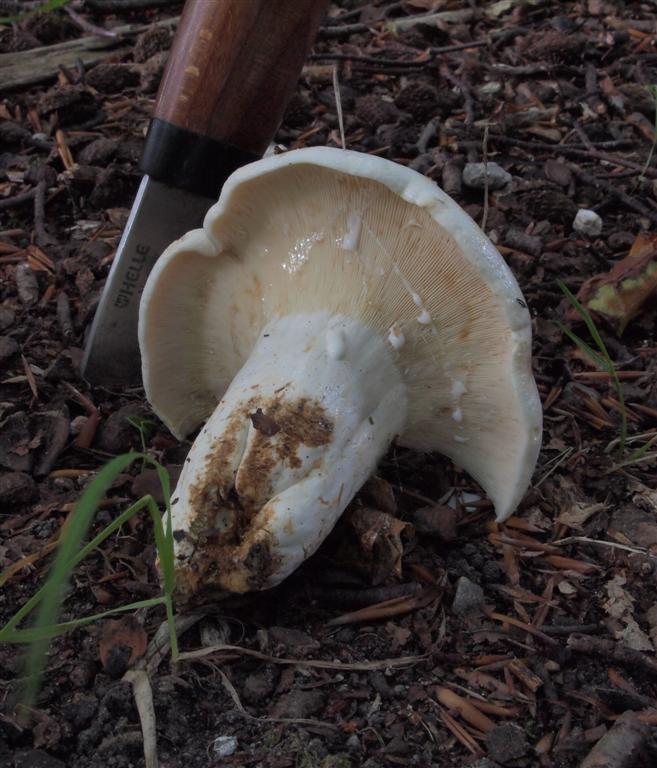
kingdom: Fungi
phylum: Basidiomycota
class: Agaricomycetes
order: Russulales
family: Russulaceae
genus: Lactifluus
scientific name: Lactifluus piperatus
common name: peber-mælkehat
